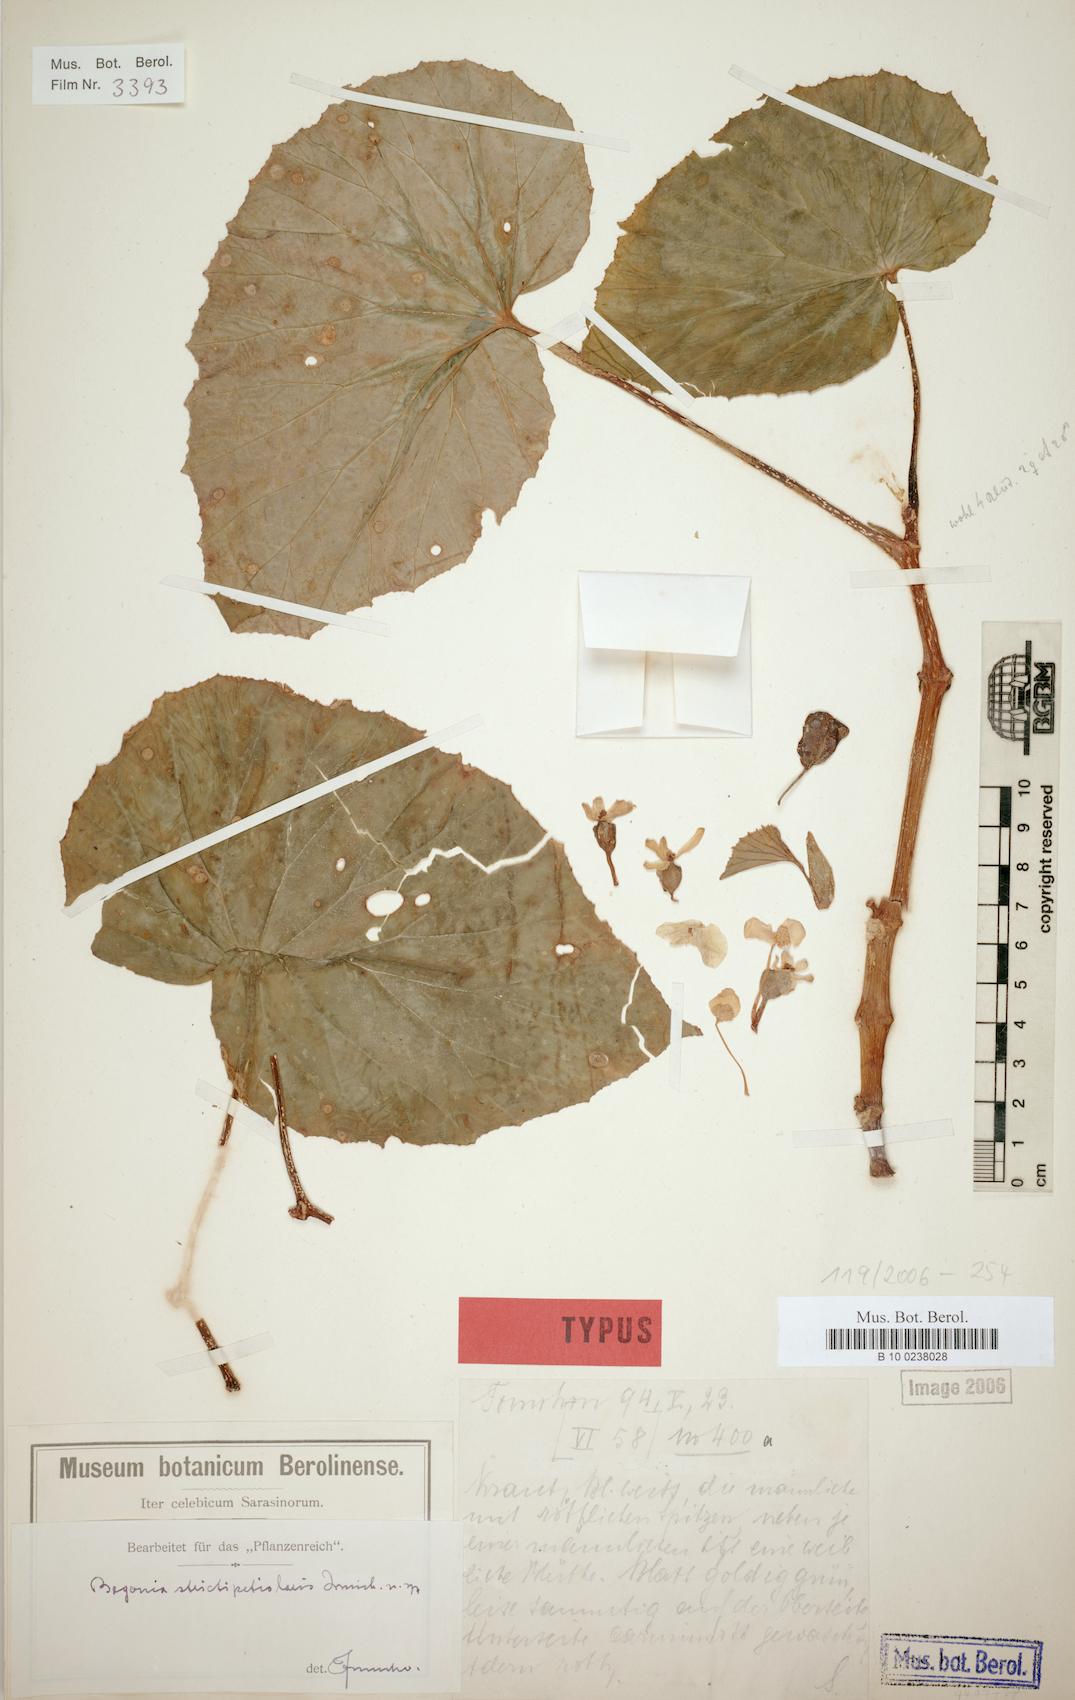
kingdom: Plantae
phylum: Tracheophyta
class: Magnoliopsida
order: Cucurbitales
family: Begoniaceae
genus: Begonia
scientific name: Begonia strictipetiolaris
